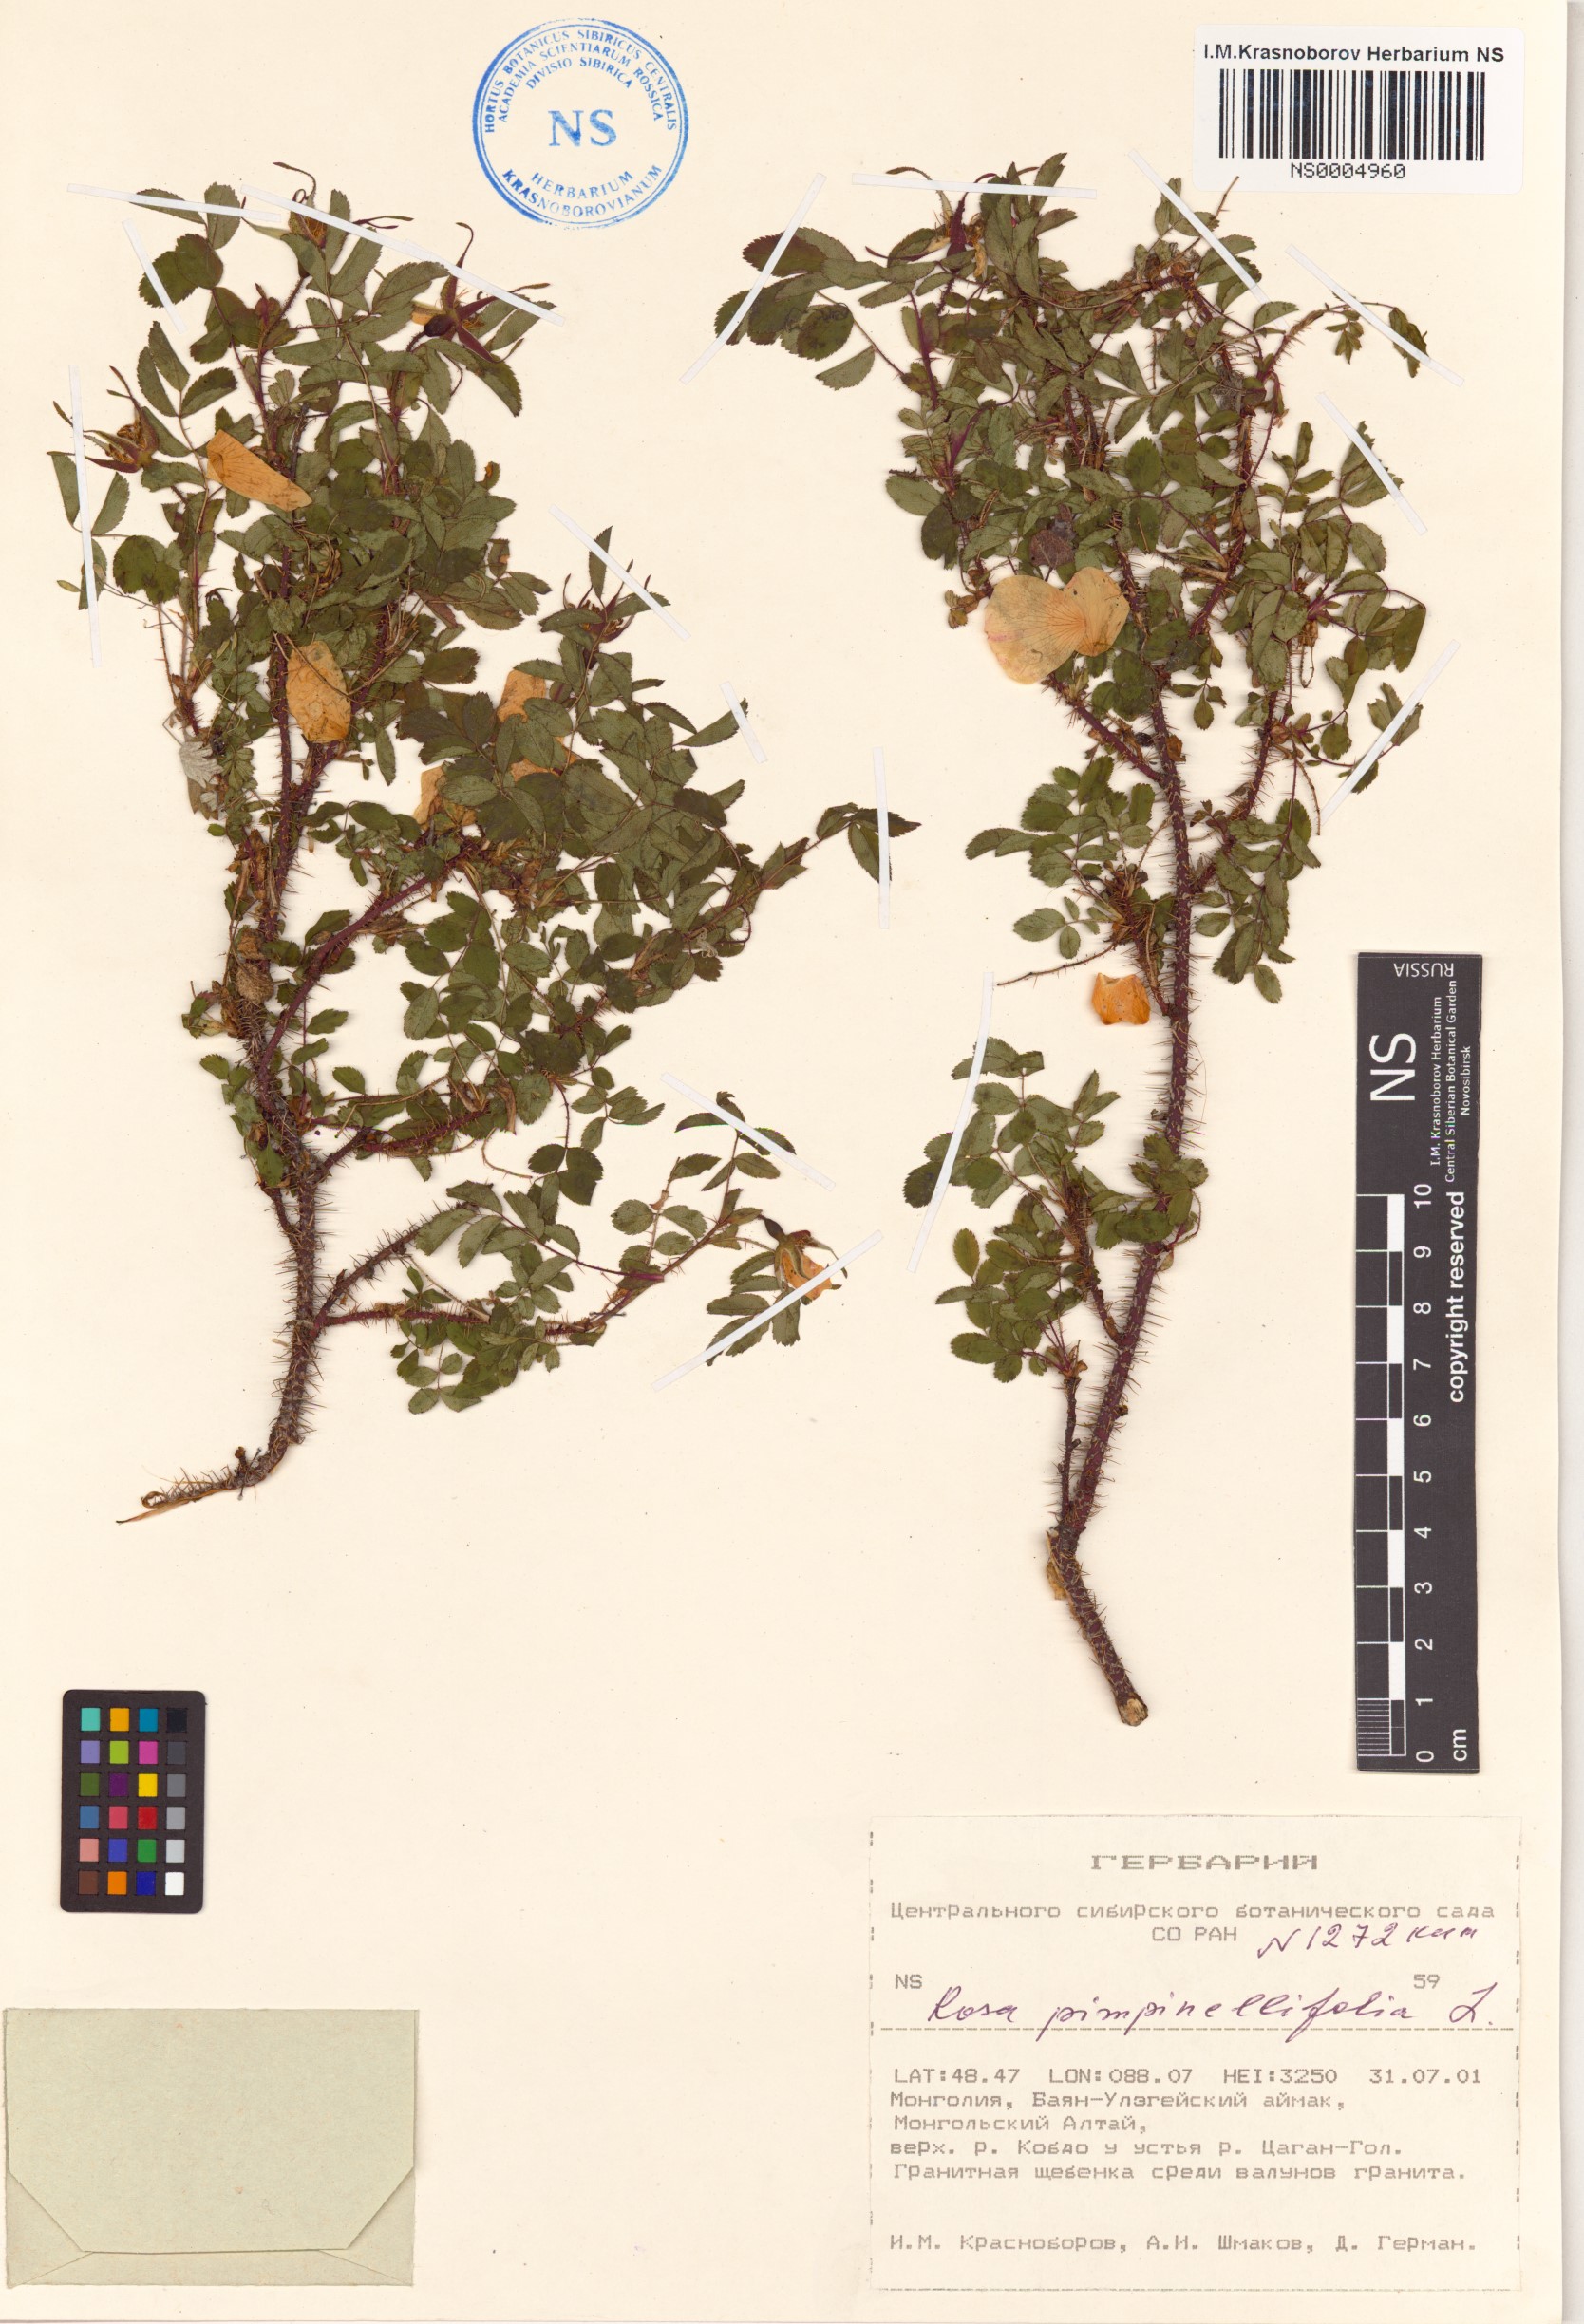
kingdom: Plantae
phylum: Tracheophyta
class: Magnoliopsida
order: Rosales
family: Rosaceae
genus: Rosa
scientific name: Rosa spinosissima
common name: Burnet rose
